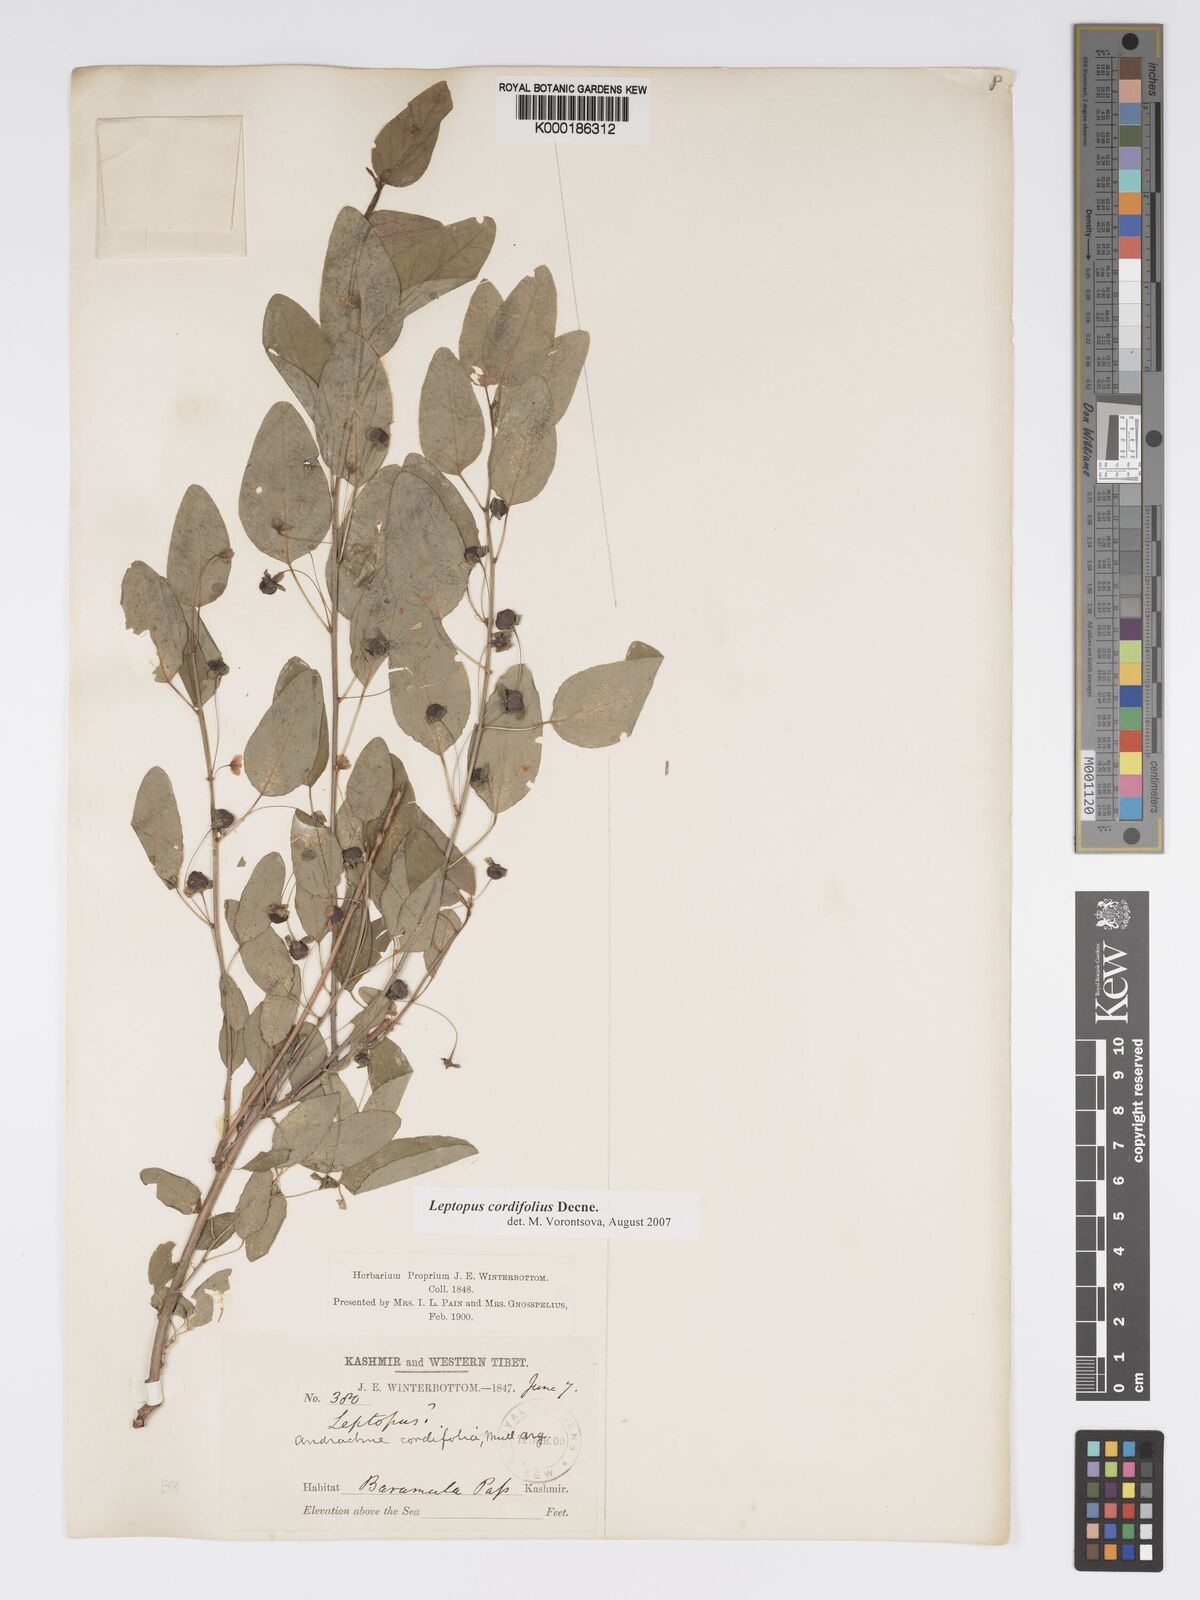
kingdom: Plantae
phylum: Tracheophyta
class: Magnoliopsida
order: Malpighiales
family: Phyllanthaceae
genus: Leptopus
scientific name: Leptopus cordifolius
